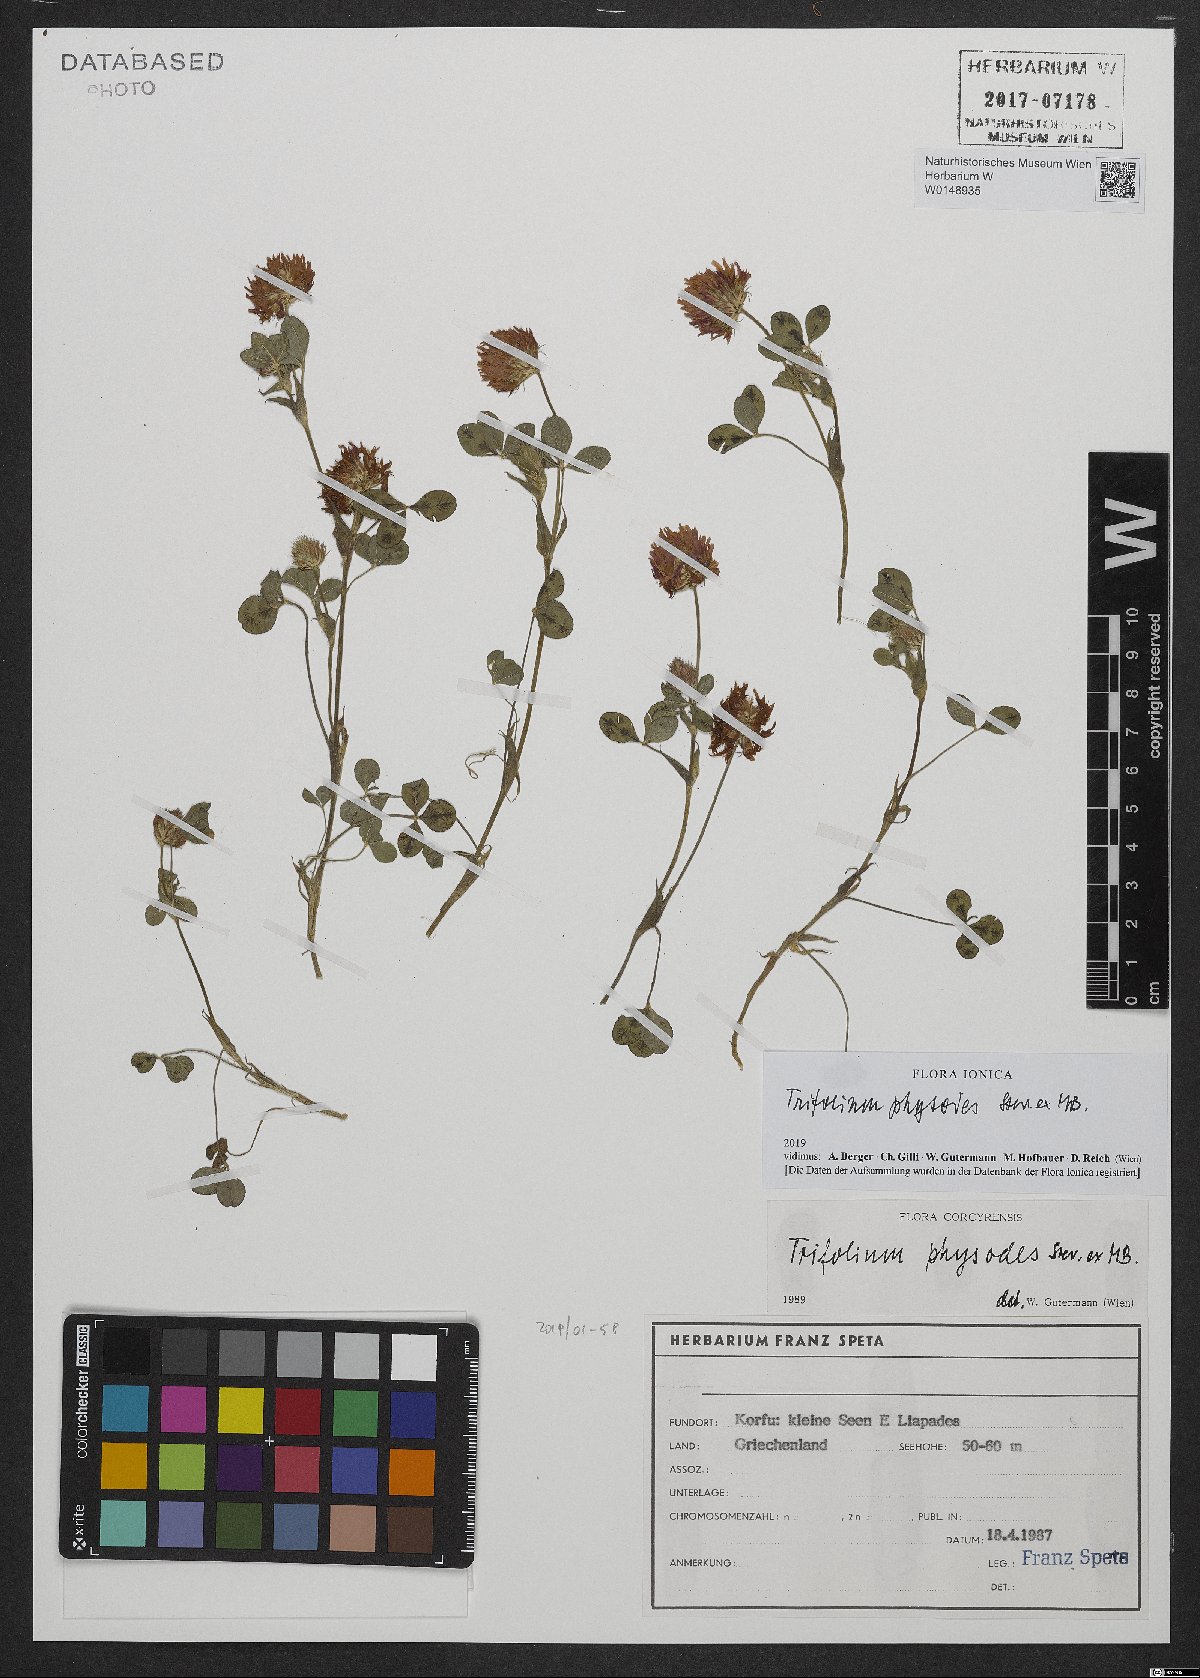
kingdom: Plantae
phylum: Tracheophyta
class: Magnoliopsida
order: Fabales
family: Fabaceae
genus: Trifolium
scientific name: Trifolium physodes
